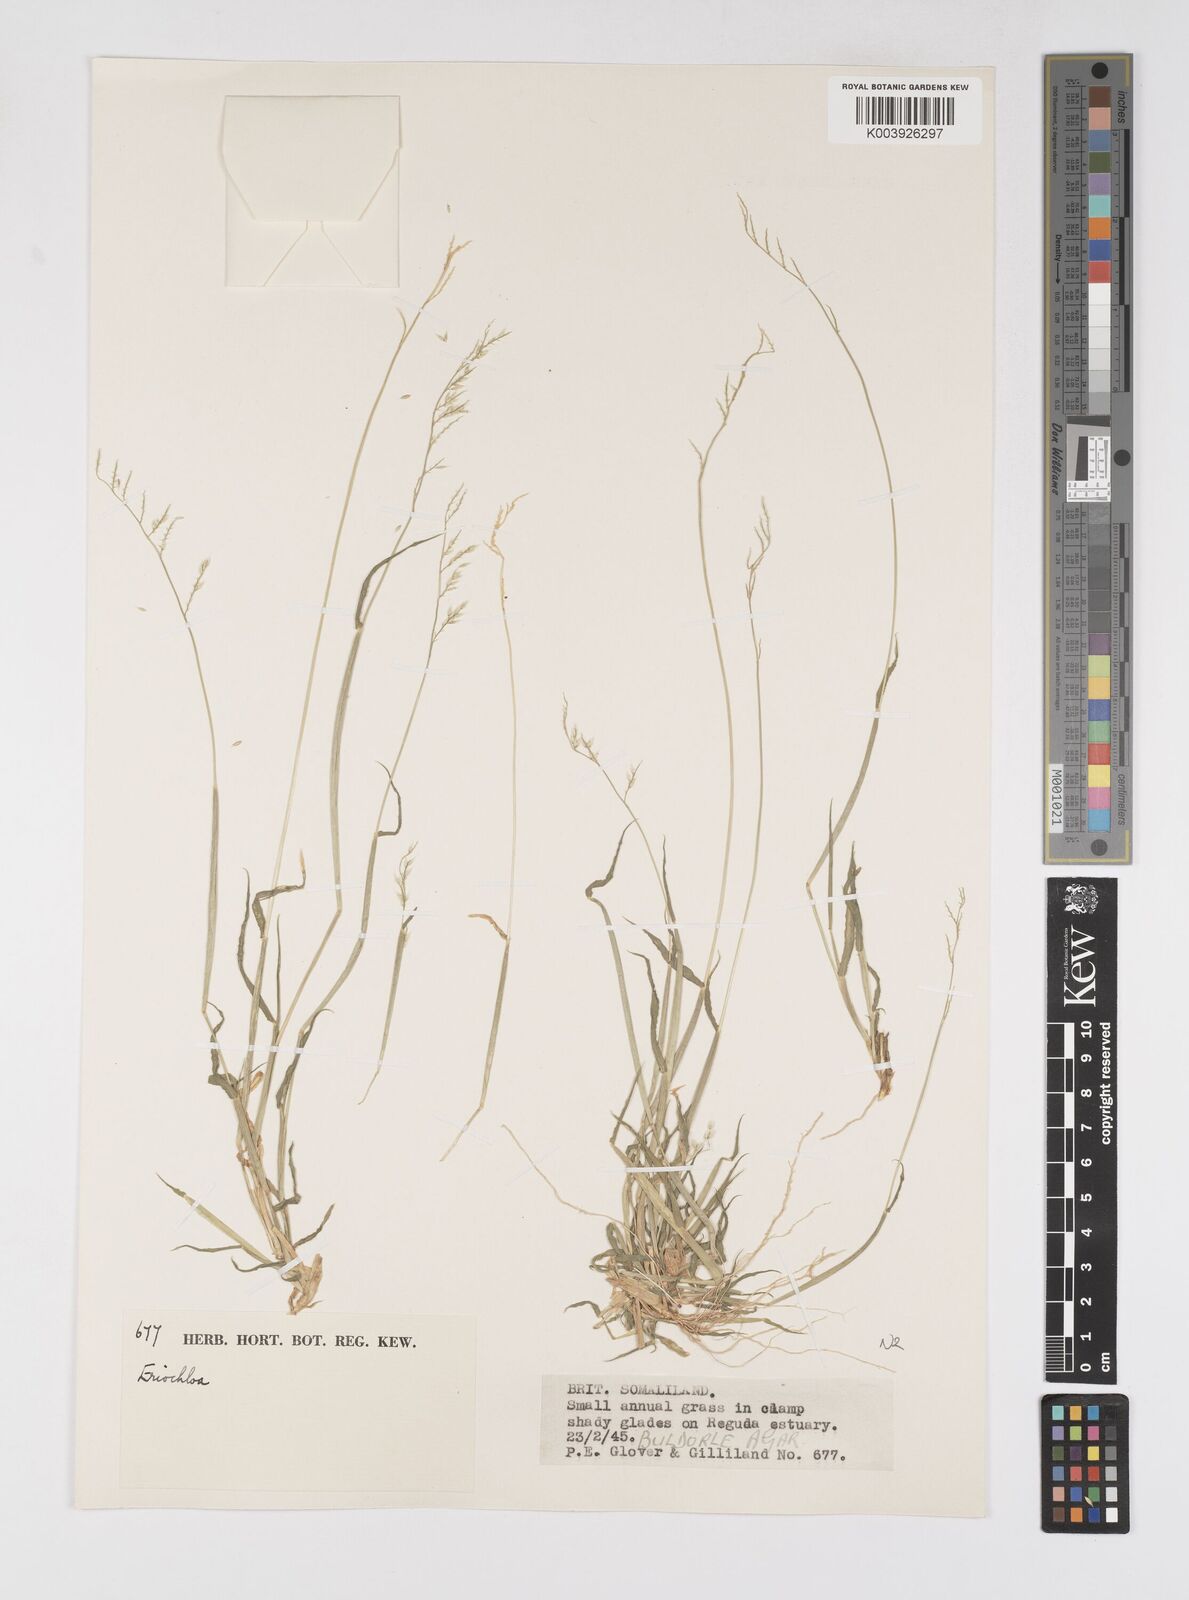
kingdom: Plantae
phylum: Tracheophyta
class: Liliopsida
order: Poales
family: Poaceae
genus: Eriochloa
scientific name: Eriochloa barbatus
